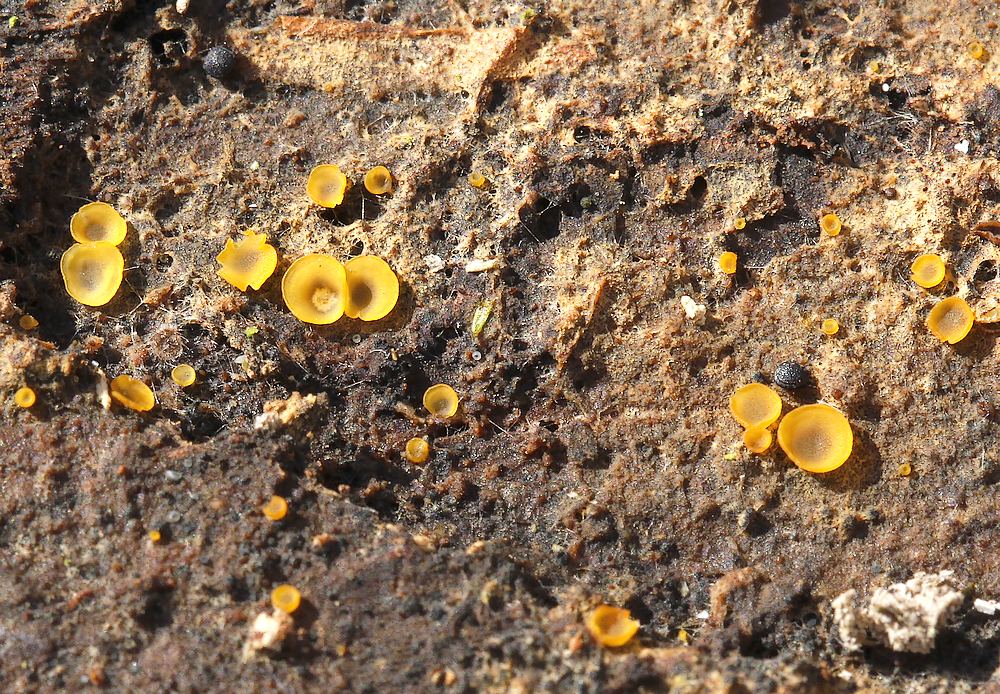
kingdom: Fungi
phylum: Ascomycota
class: Orbiliomycetes
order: Orbiliales
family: Orbiliaceae
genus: Hyalorbilia
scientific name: Hyalorbilia
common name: voksskive
